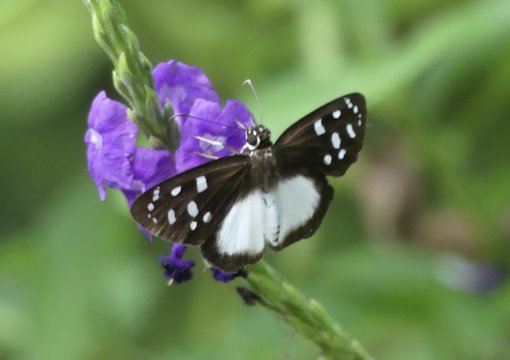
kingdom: Animalia
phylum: Arthropoda
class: Insecta
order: Lepidoptera
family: Hesperiidae
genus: Hyalothyrus
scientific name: Hyalothyrus neleus
